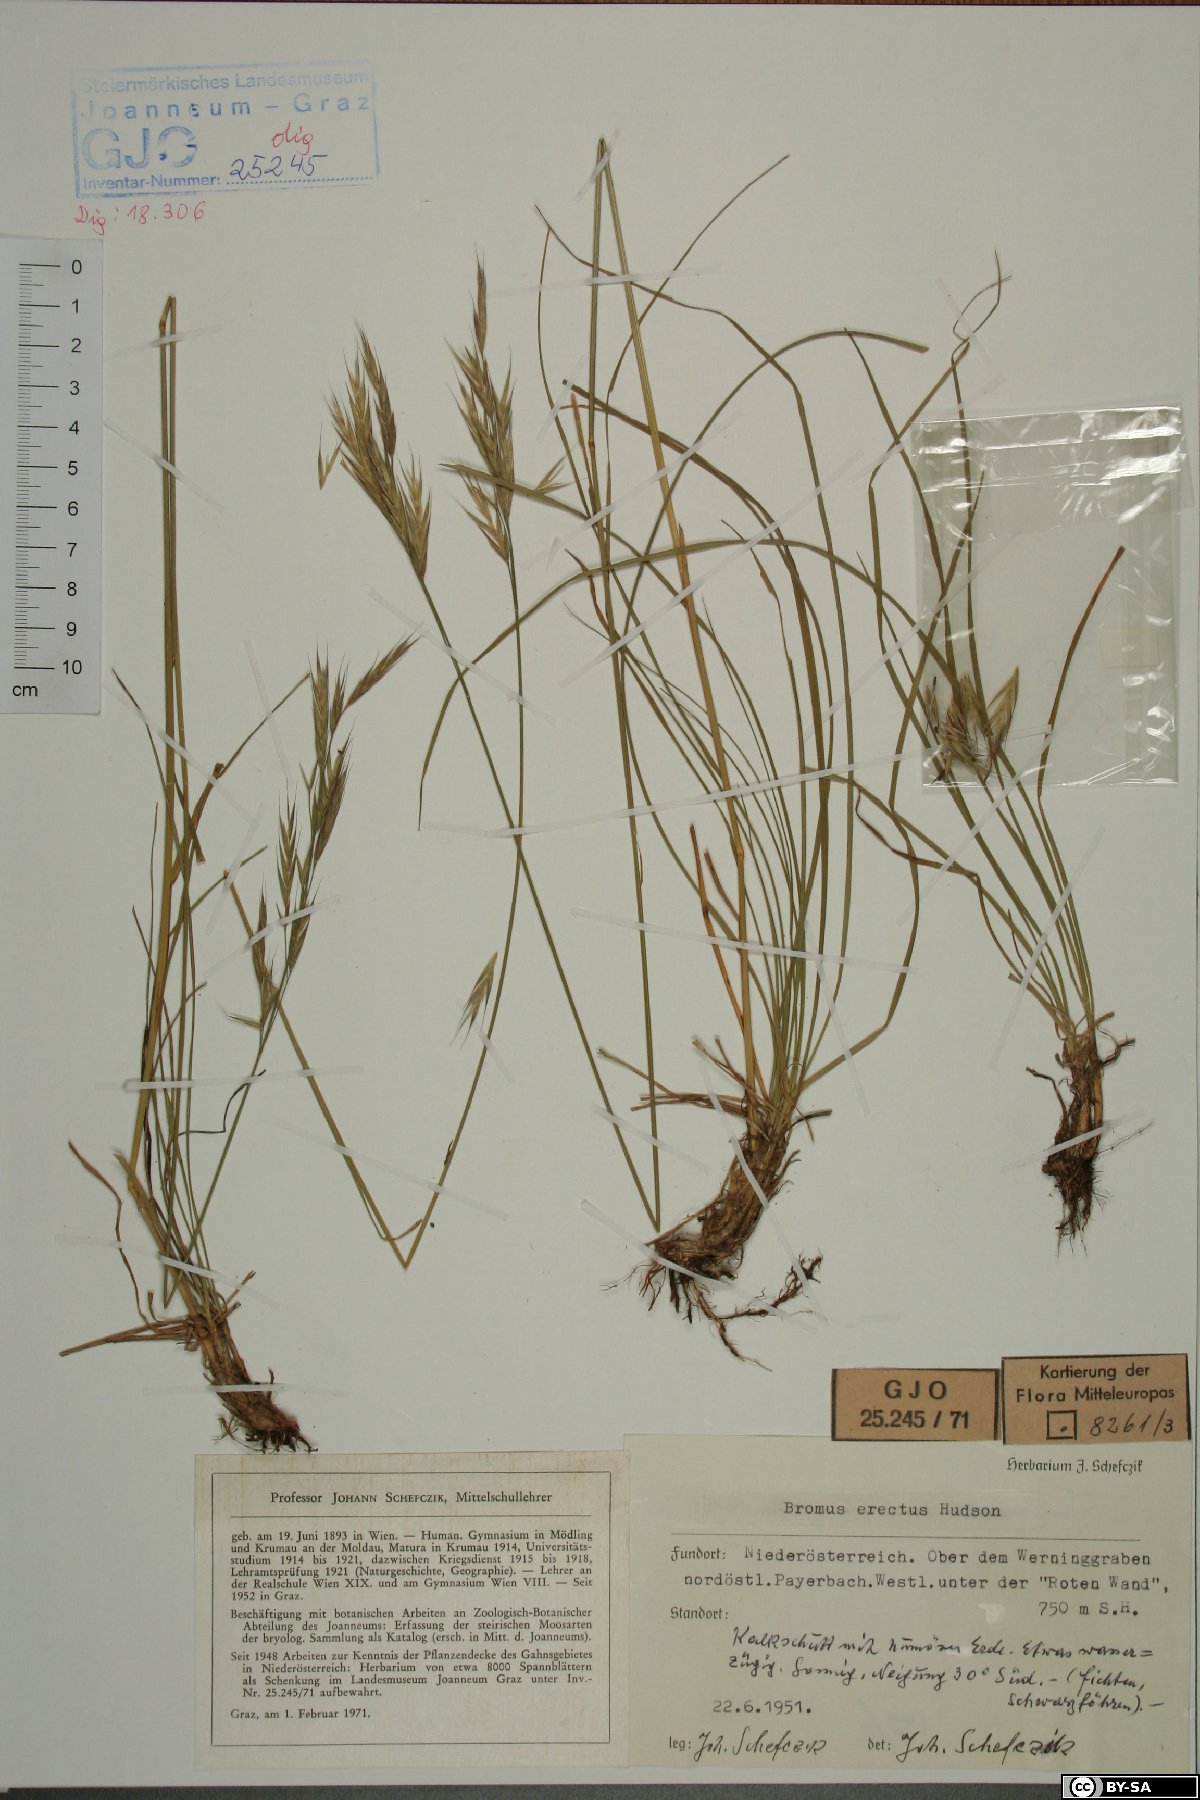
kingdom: Plantae
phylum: Tracheophyta
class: Liliopsida
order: Poales
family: Poaceae
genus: Bromus
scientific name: Bromus erectus
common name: Erect brome
